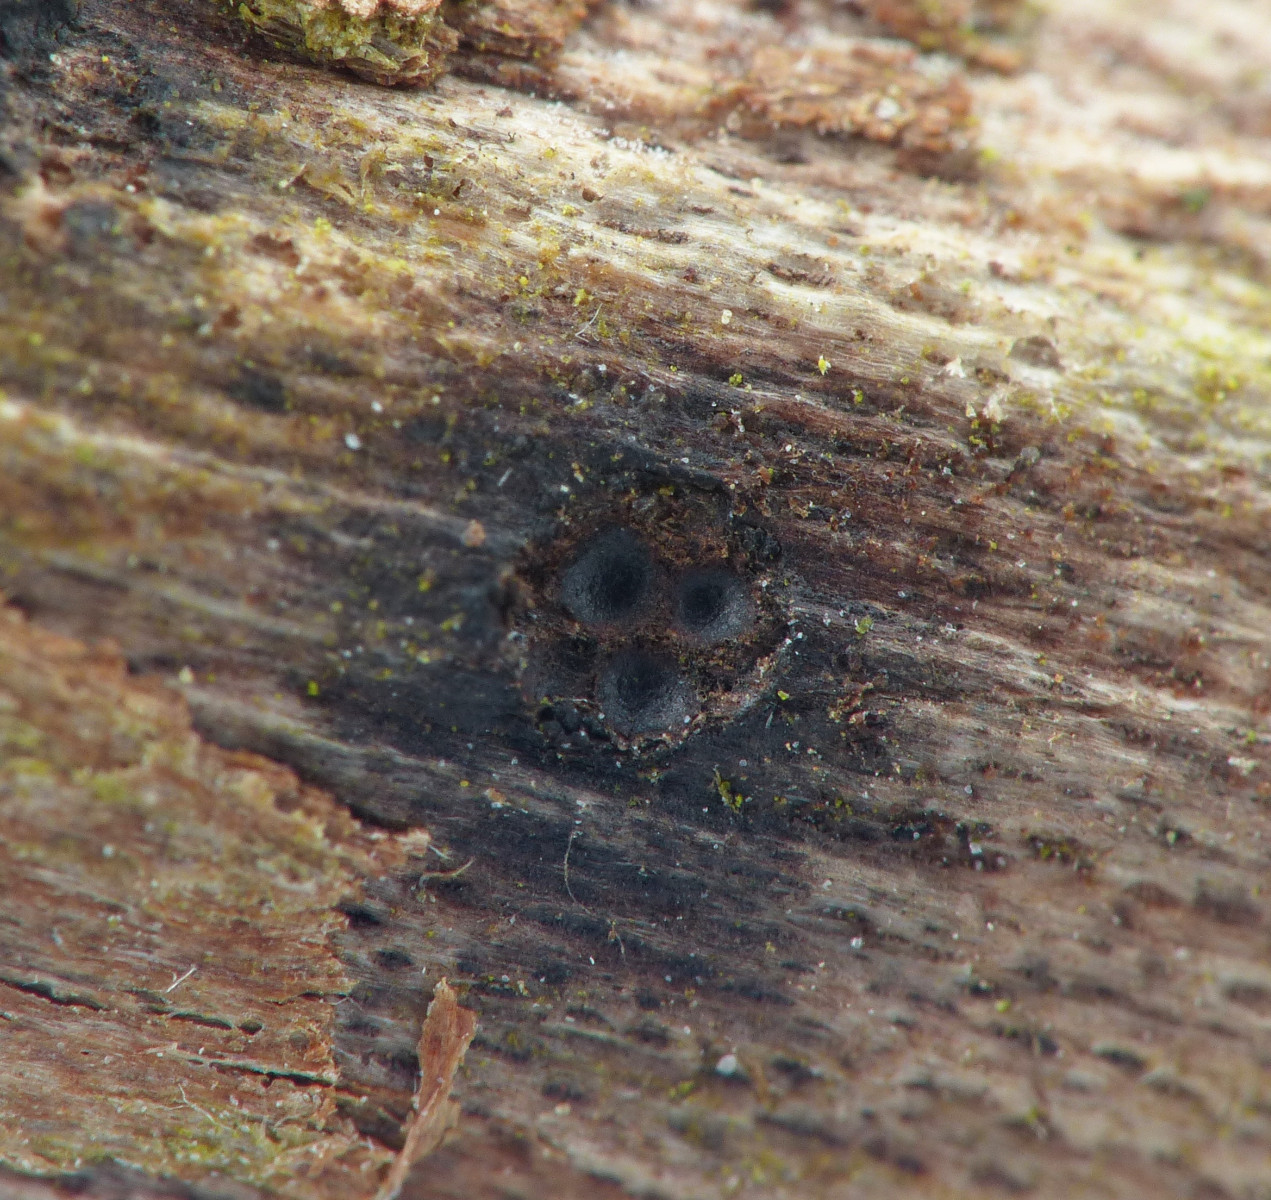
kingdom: Fungi
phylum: Ascomycota
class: Sordariomycetes
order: Xylariales
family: Diatrypaceae
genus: Eutypella
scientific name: Eutypella leprosa
